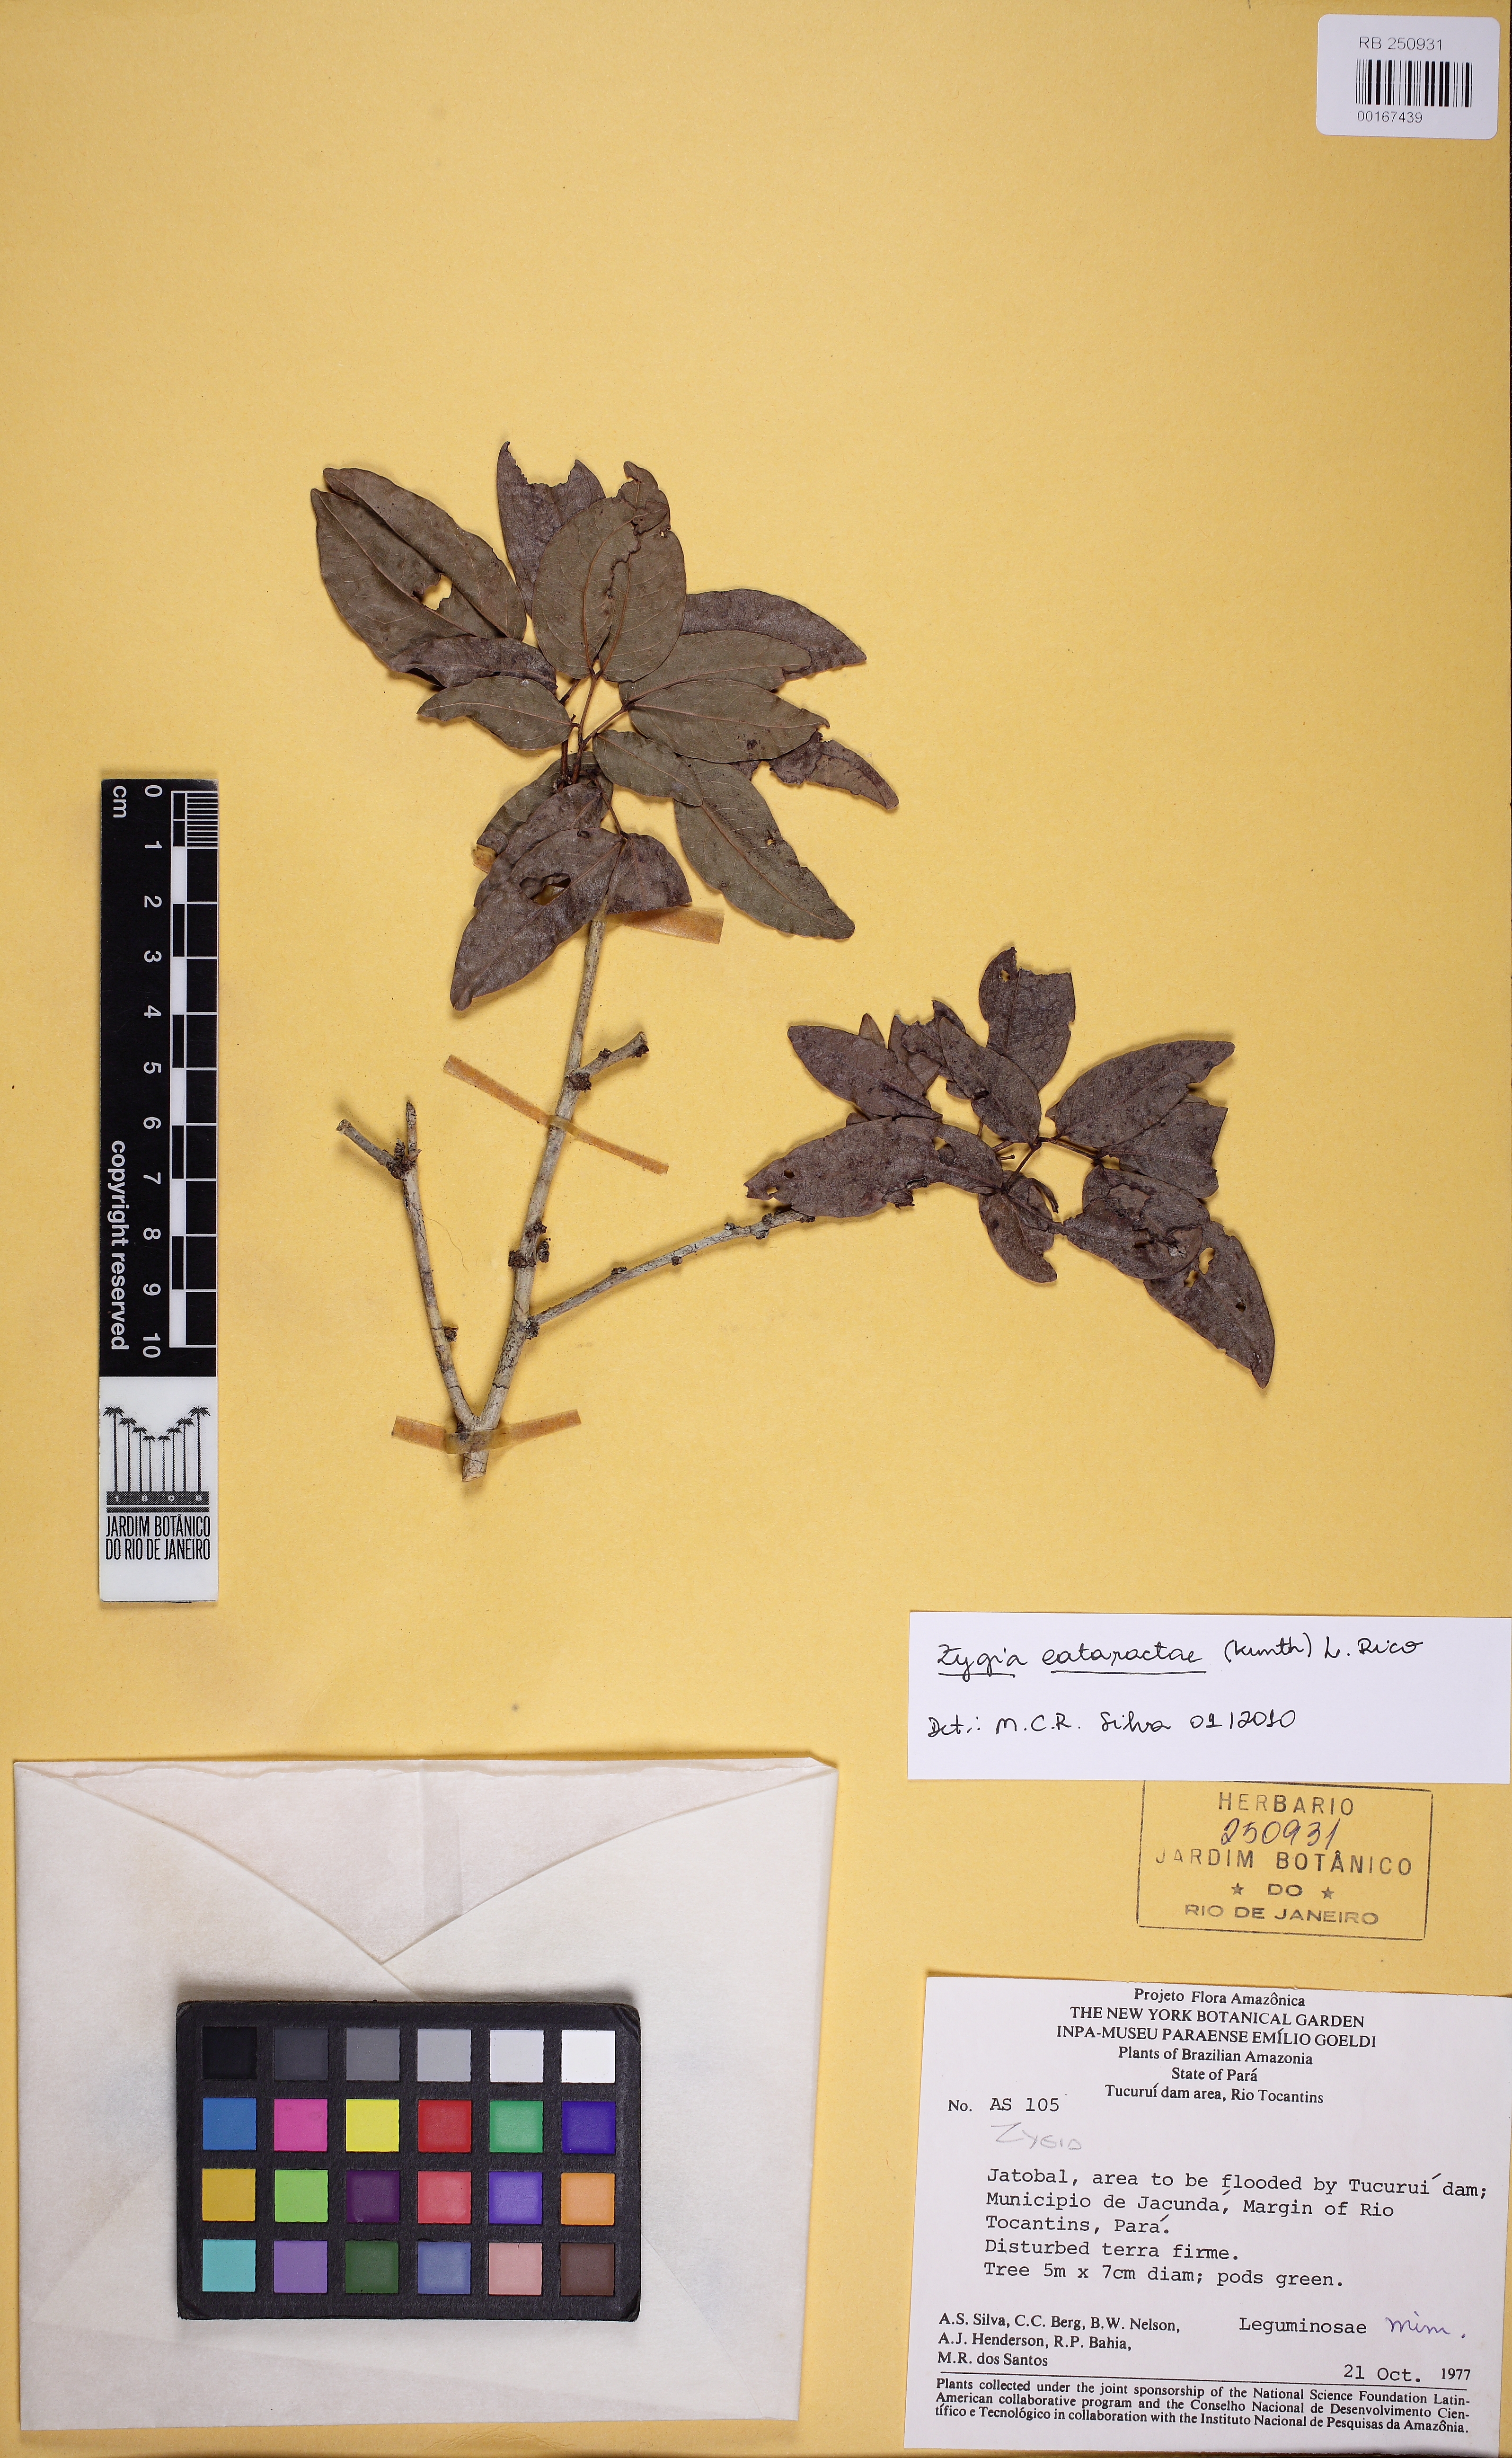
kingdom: Plantae
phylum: Tracheophyta
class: Magnoliopsida
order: Fabales
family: Fabaceae
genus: Zygia
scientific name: Zygia cataractae
